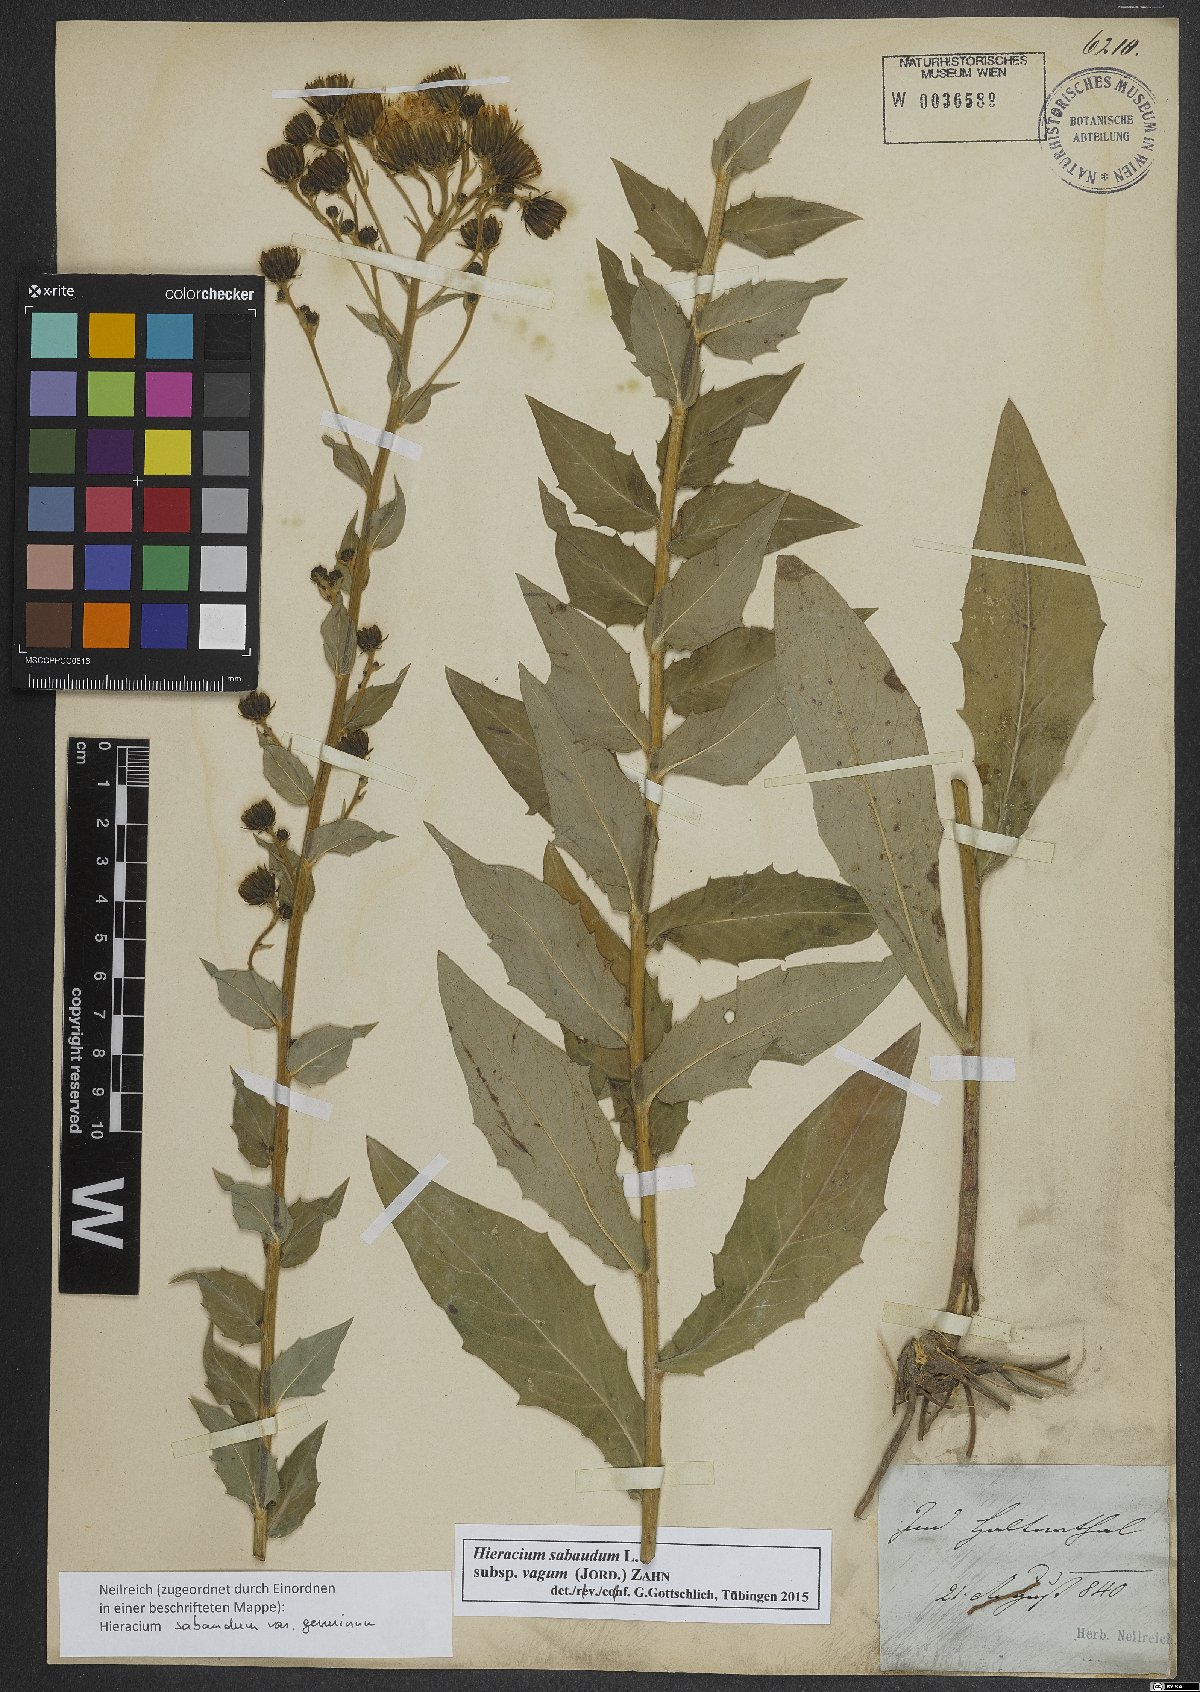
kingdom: Plantae
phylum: Tracheophyta
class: Magnoliopsida
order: Asterales
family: Asteraceae
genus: Hieracium
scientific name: Hieracium sabaudum
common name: New england hawkweed
